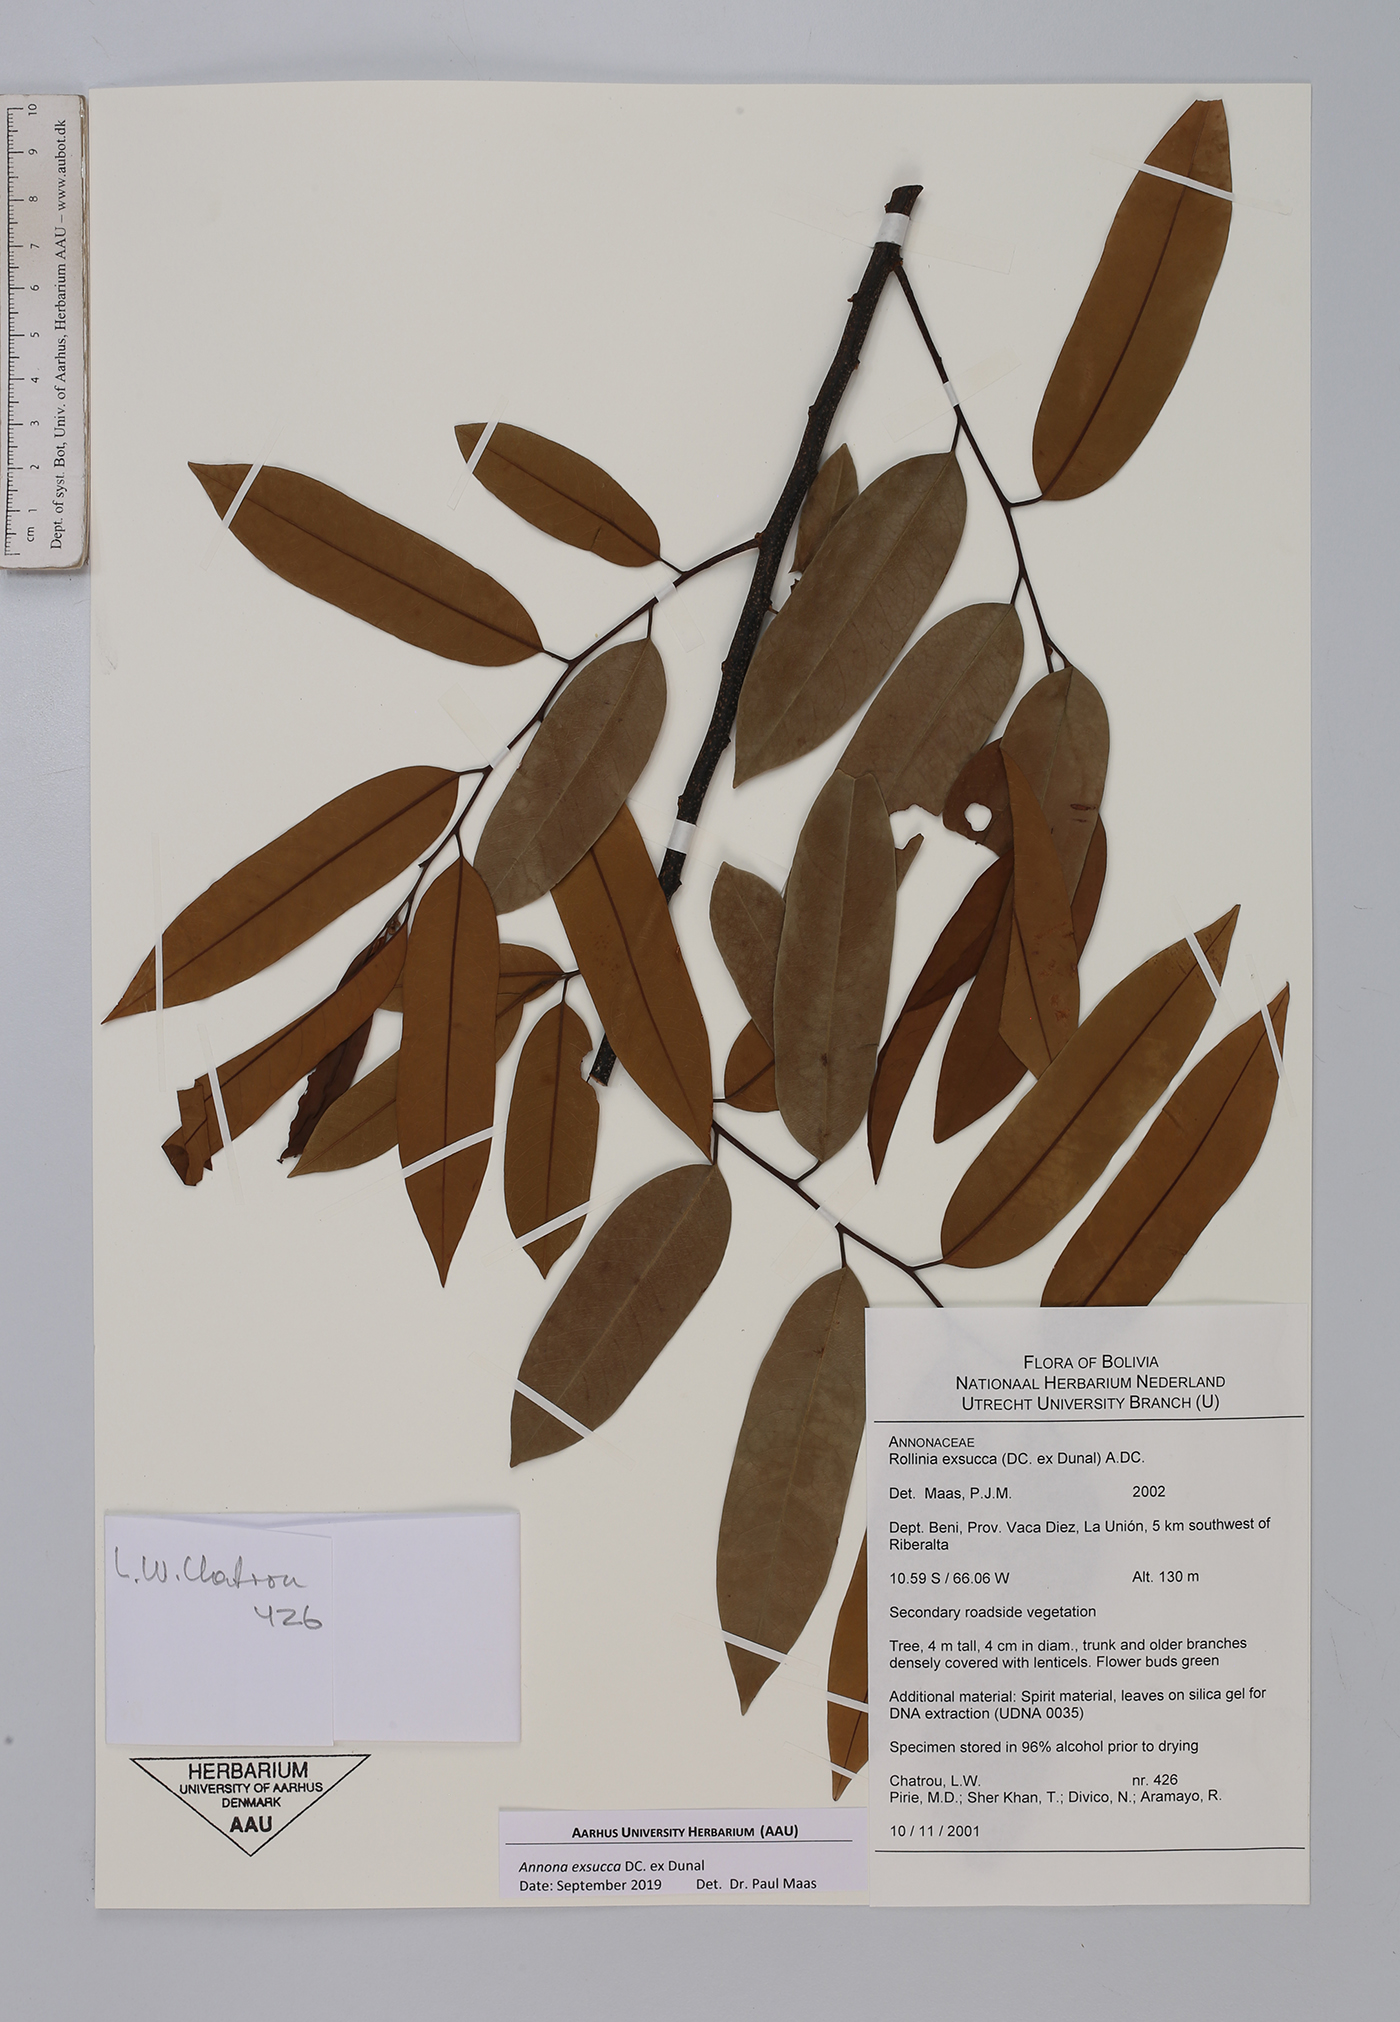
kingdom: Plantae
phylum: Tracheophyta
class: Magnoliopsida
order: Magnoliales
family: Annonaceae
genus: Annona
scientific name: Annona exsucca
